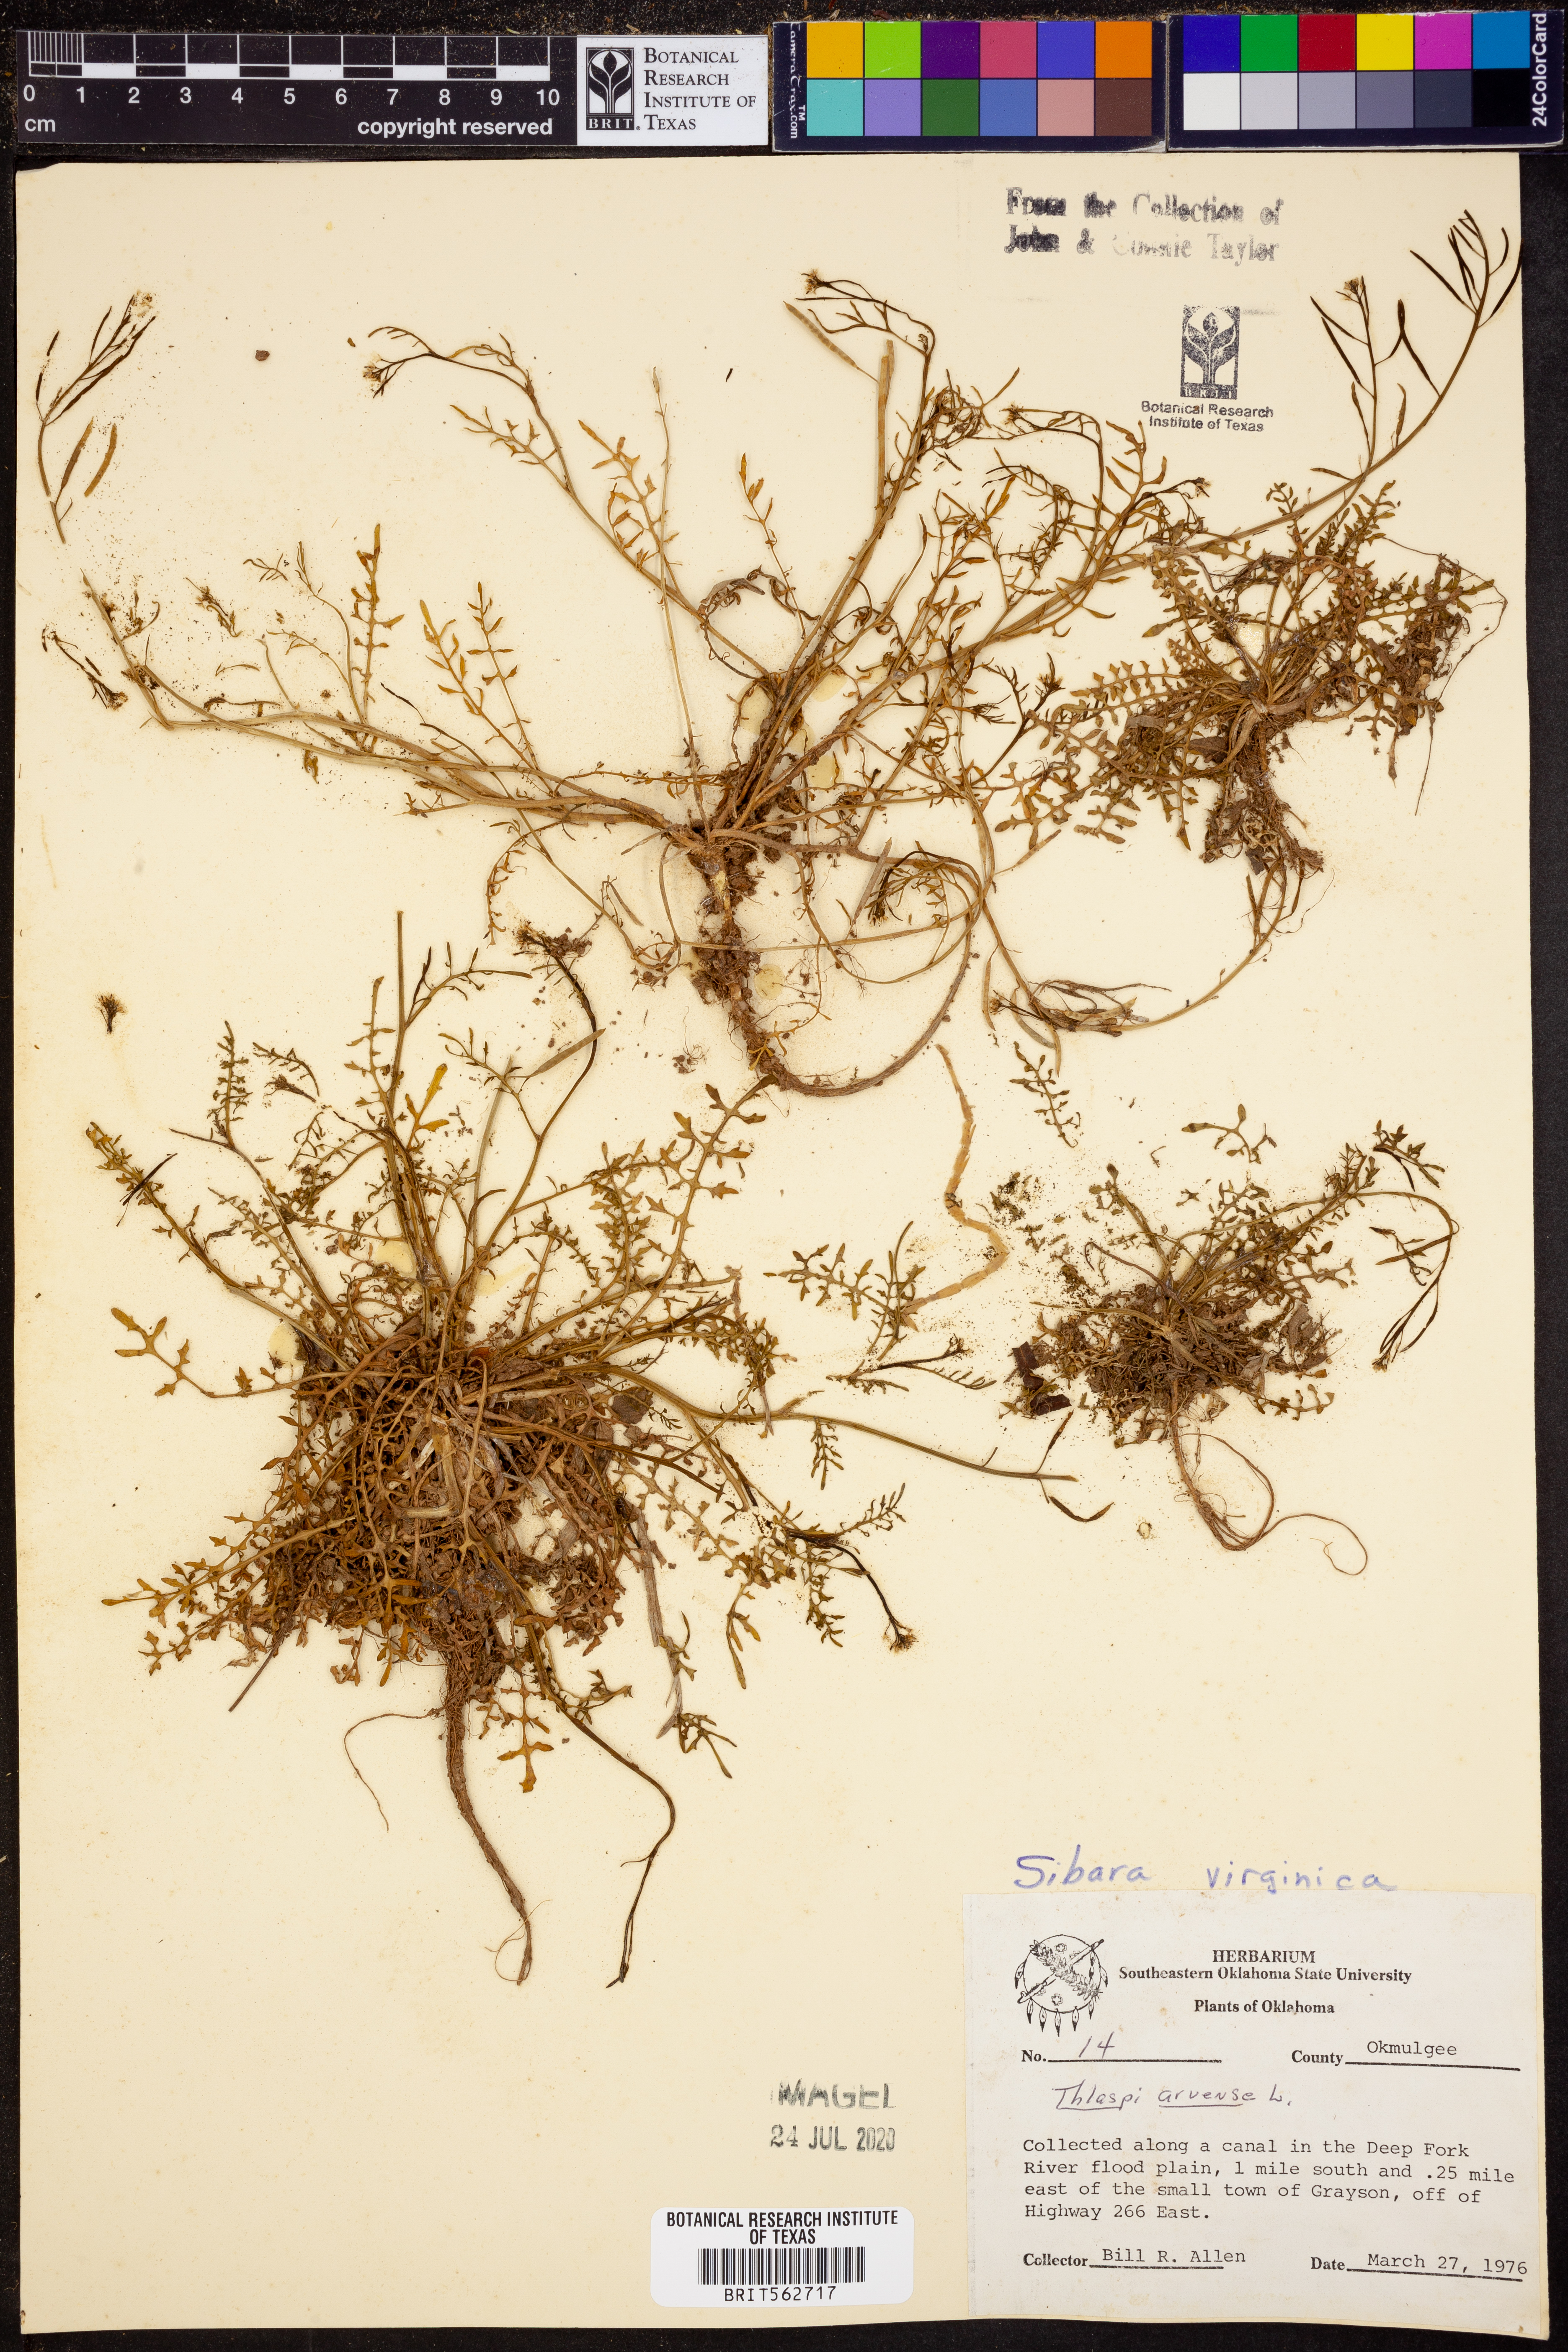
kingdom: Plantae
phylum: Tracheophyta
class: Magnoliopsida
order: Brassicales
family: Brassicaceae
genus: Planodes
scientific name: Planodes virginicum
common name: Virginia cress
